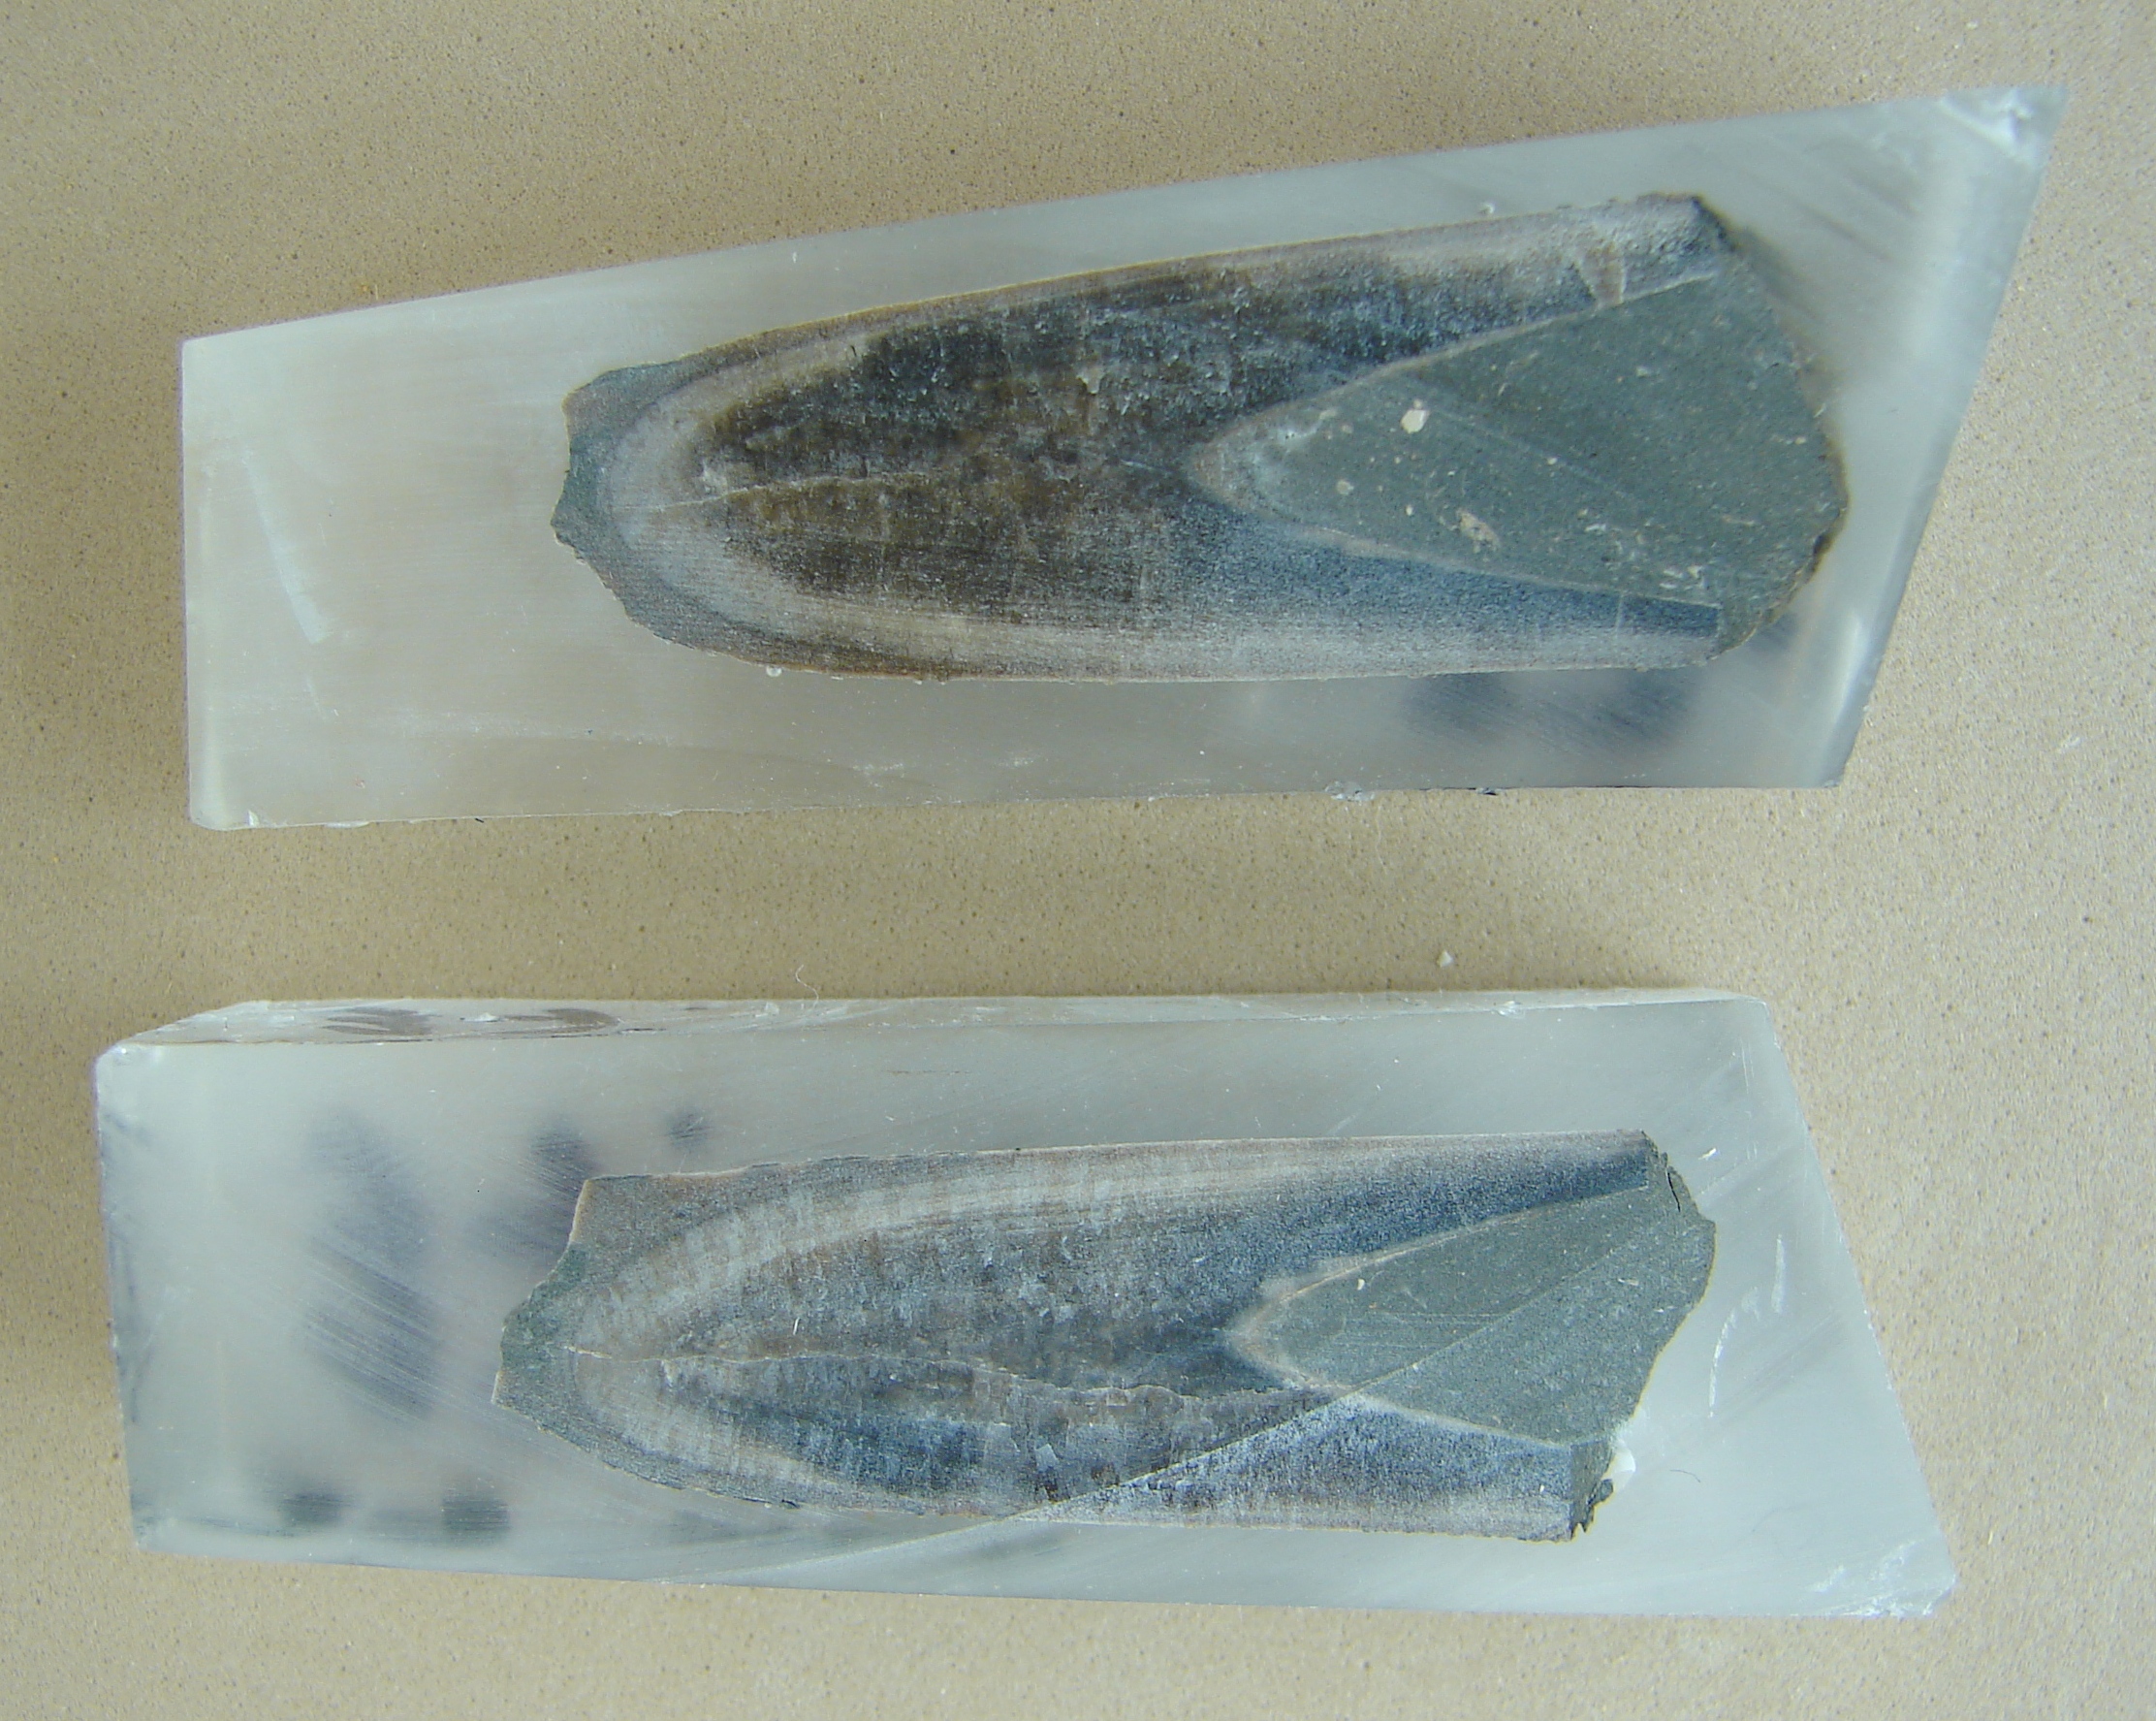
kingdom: Animalia
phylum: Mollusca
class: Cephalopoda
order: Belemnitida
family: Megateuthididae
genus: Dactyloteuthis
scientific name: Dactyloteuthis semistriata
